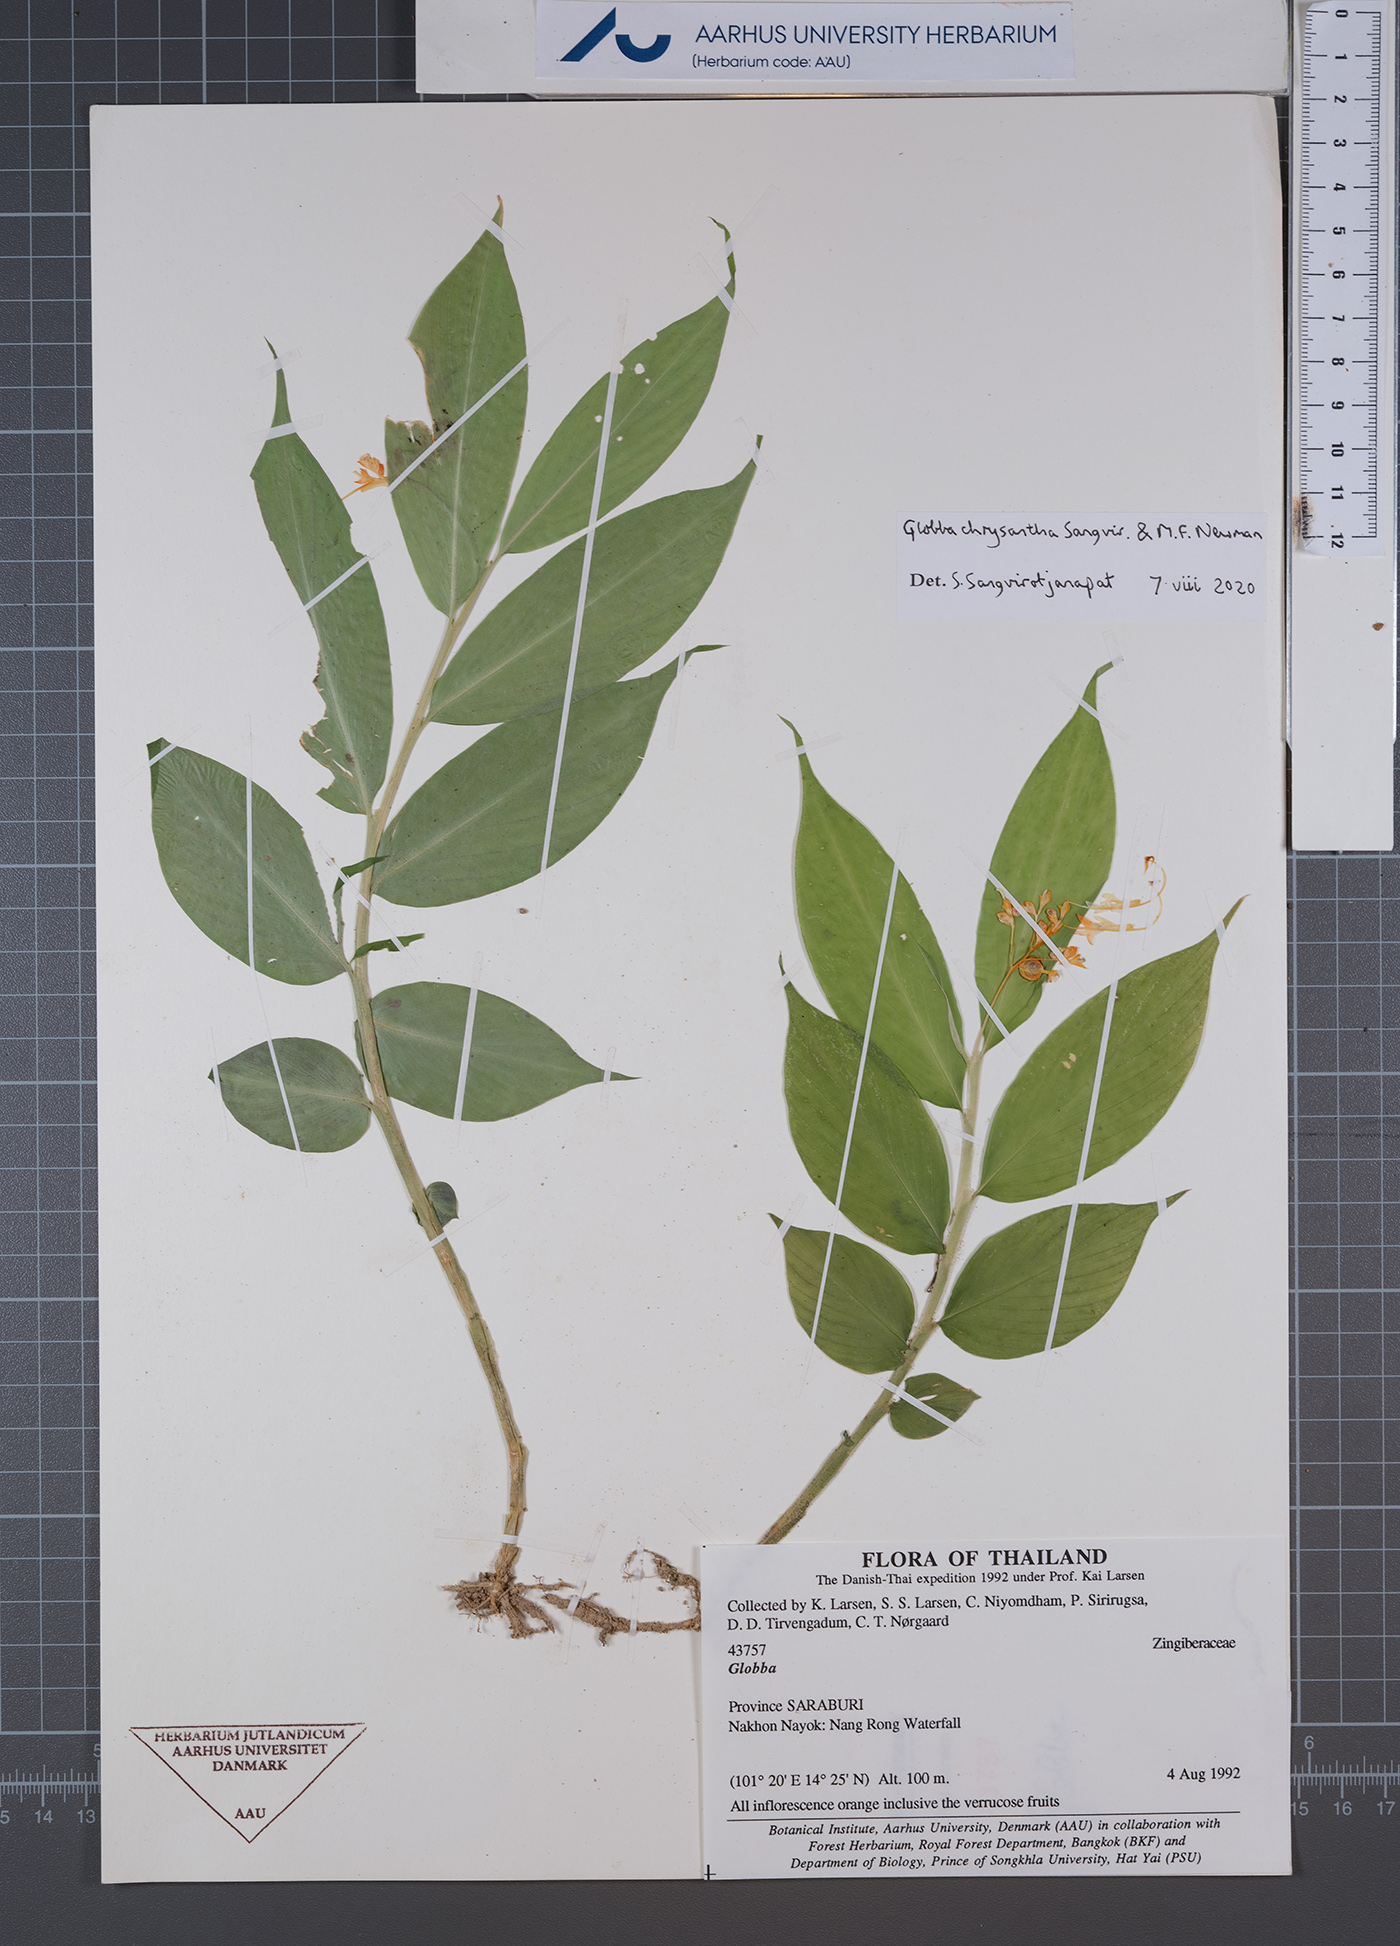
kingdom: Plantae
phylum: Tracheophyta
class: Liliopsida
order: Zingiberales
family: Zingiberaceae
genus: Globba
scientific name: Globba chrysantha
